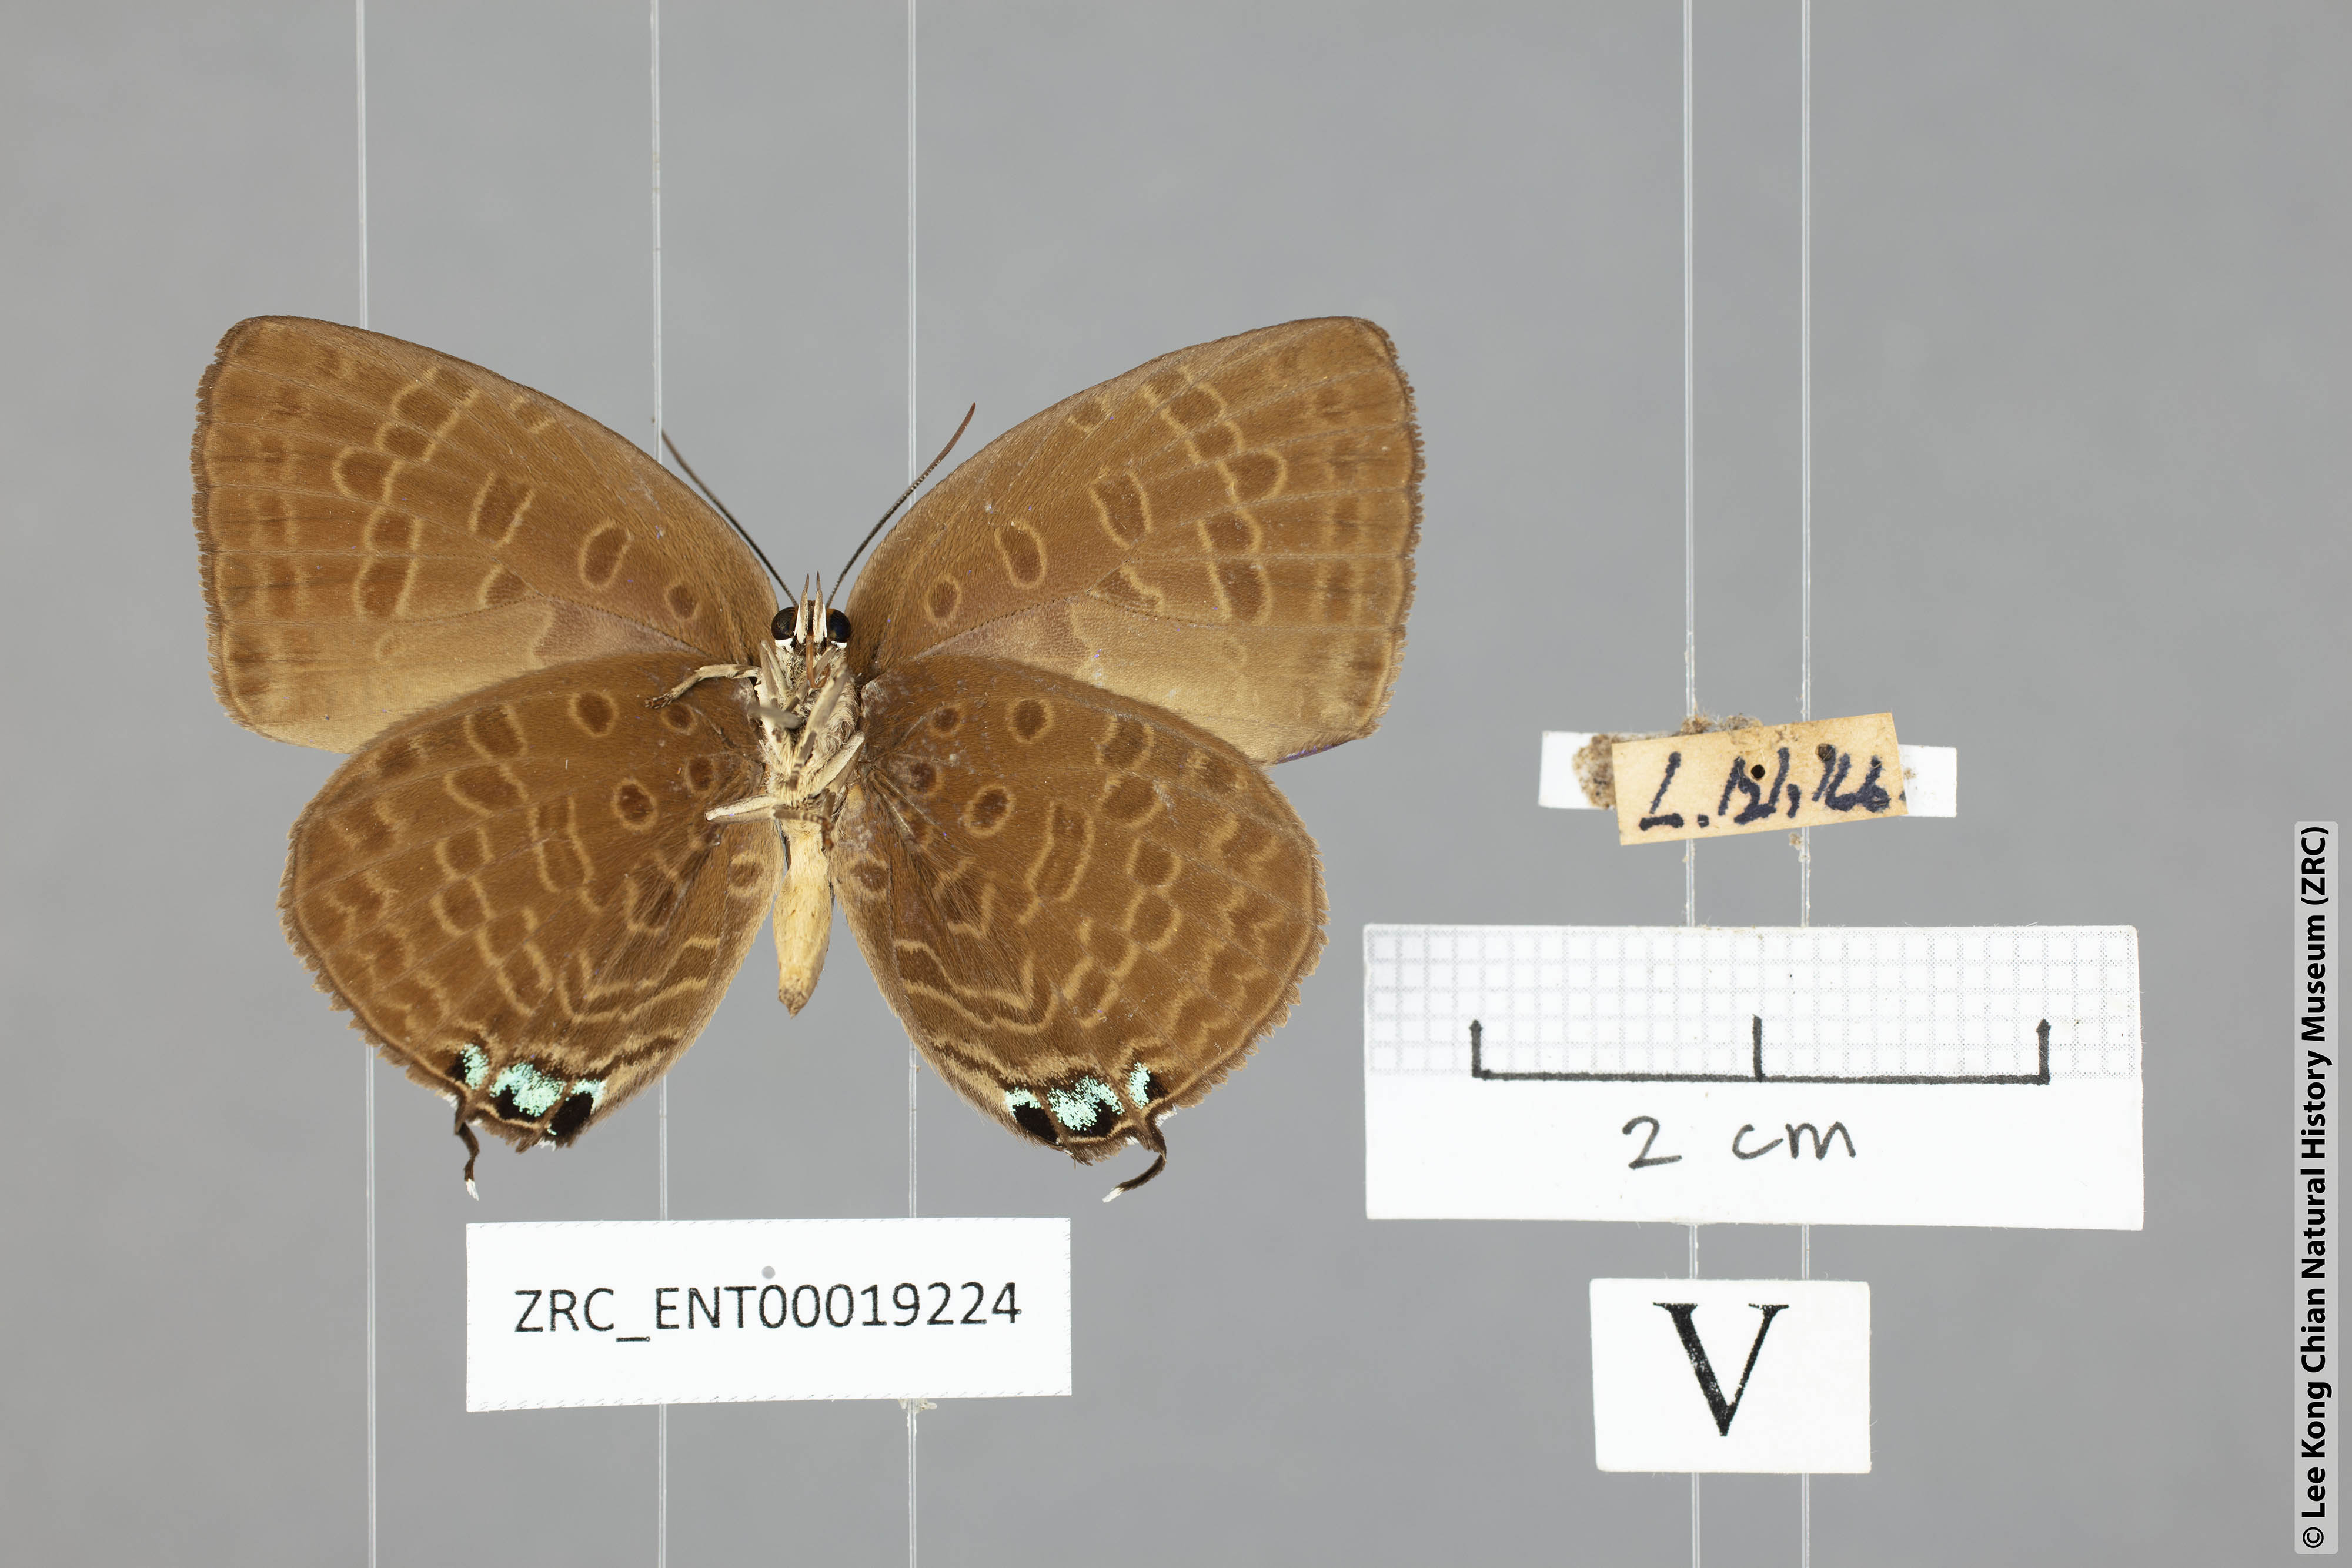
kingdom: Animalia
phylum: Arthropoda
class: Insecta
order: Lepidoptera
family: Lycaenidae
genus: Arhopala
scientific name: Arhopala atosia
